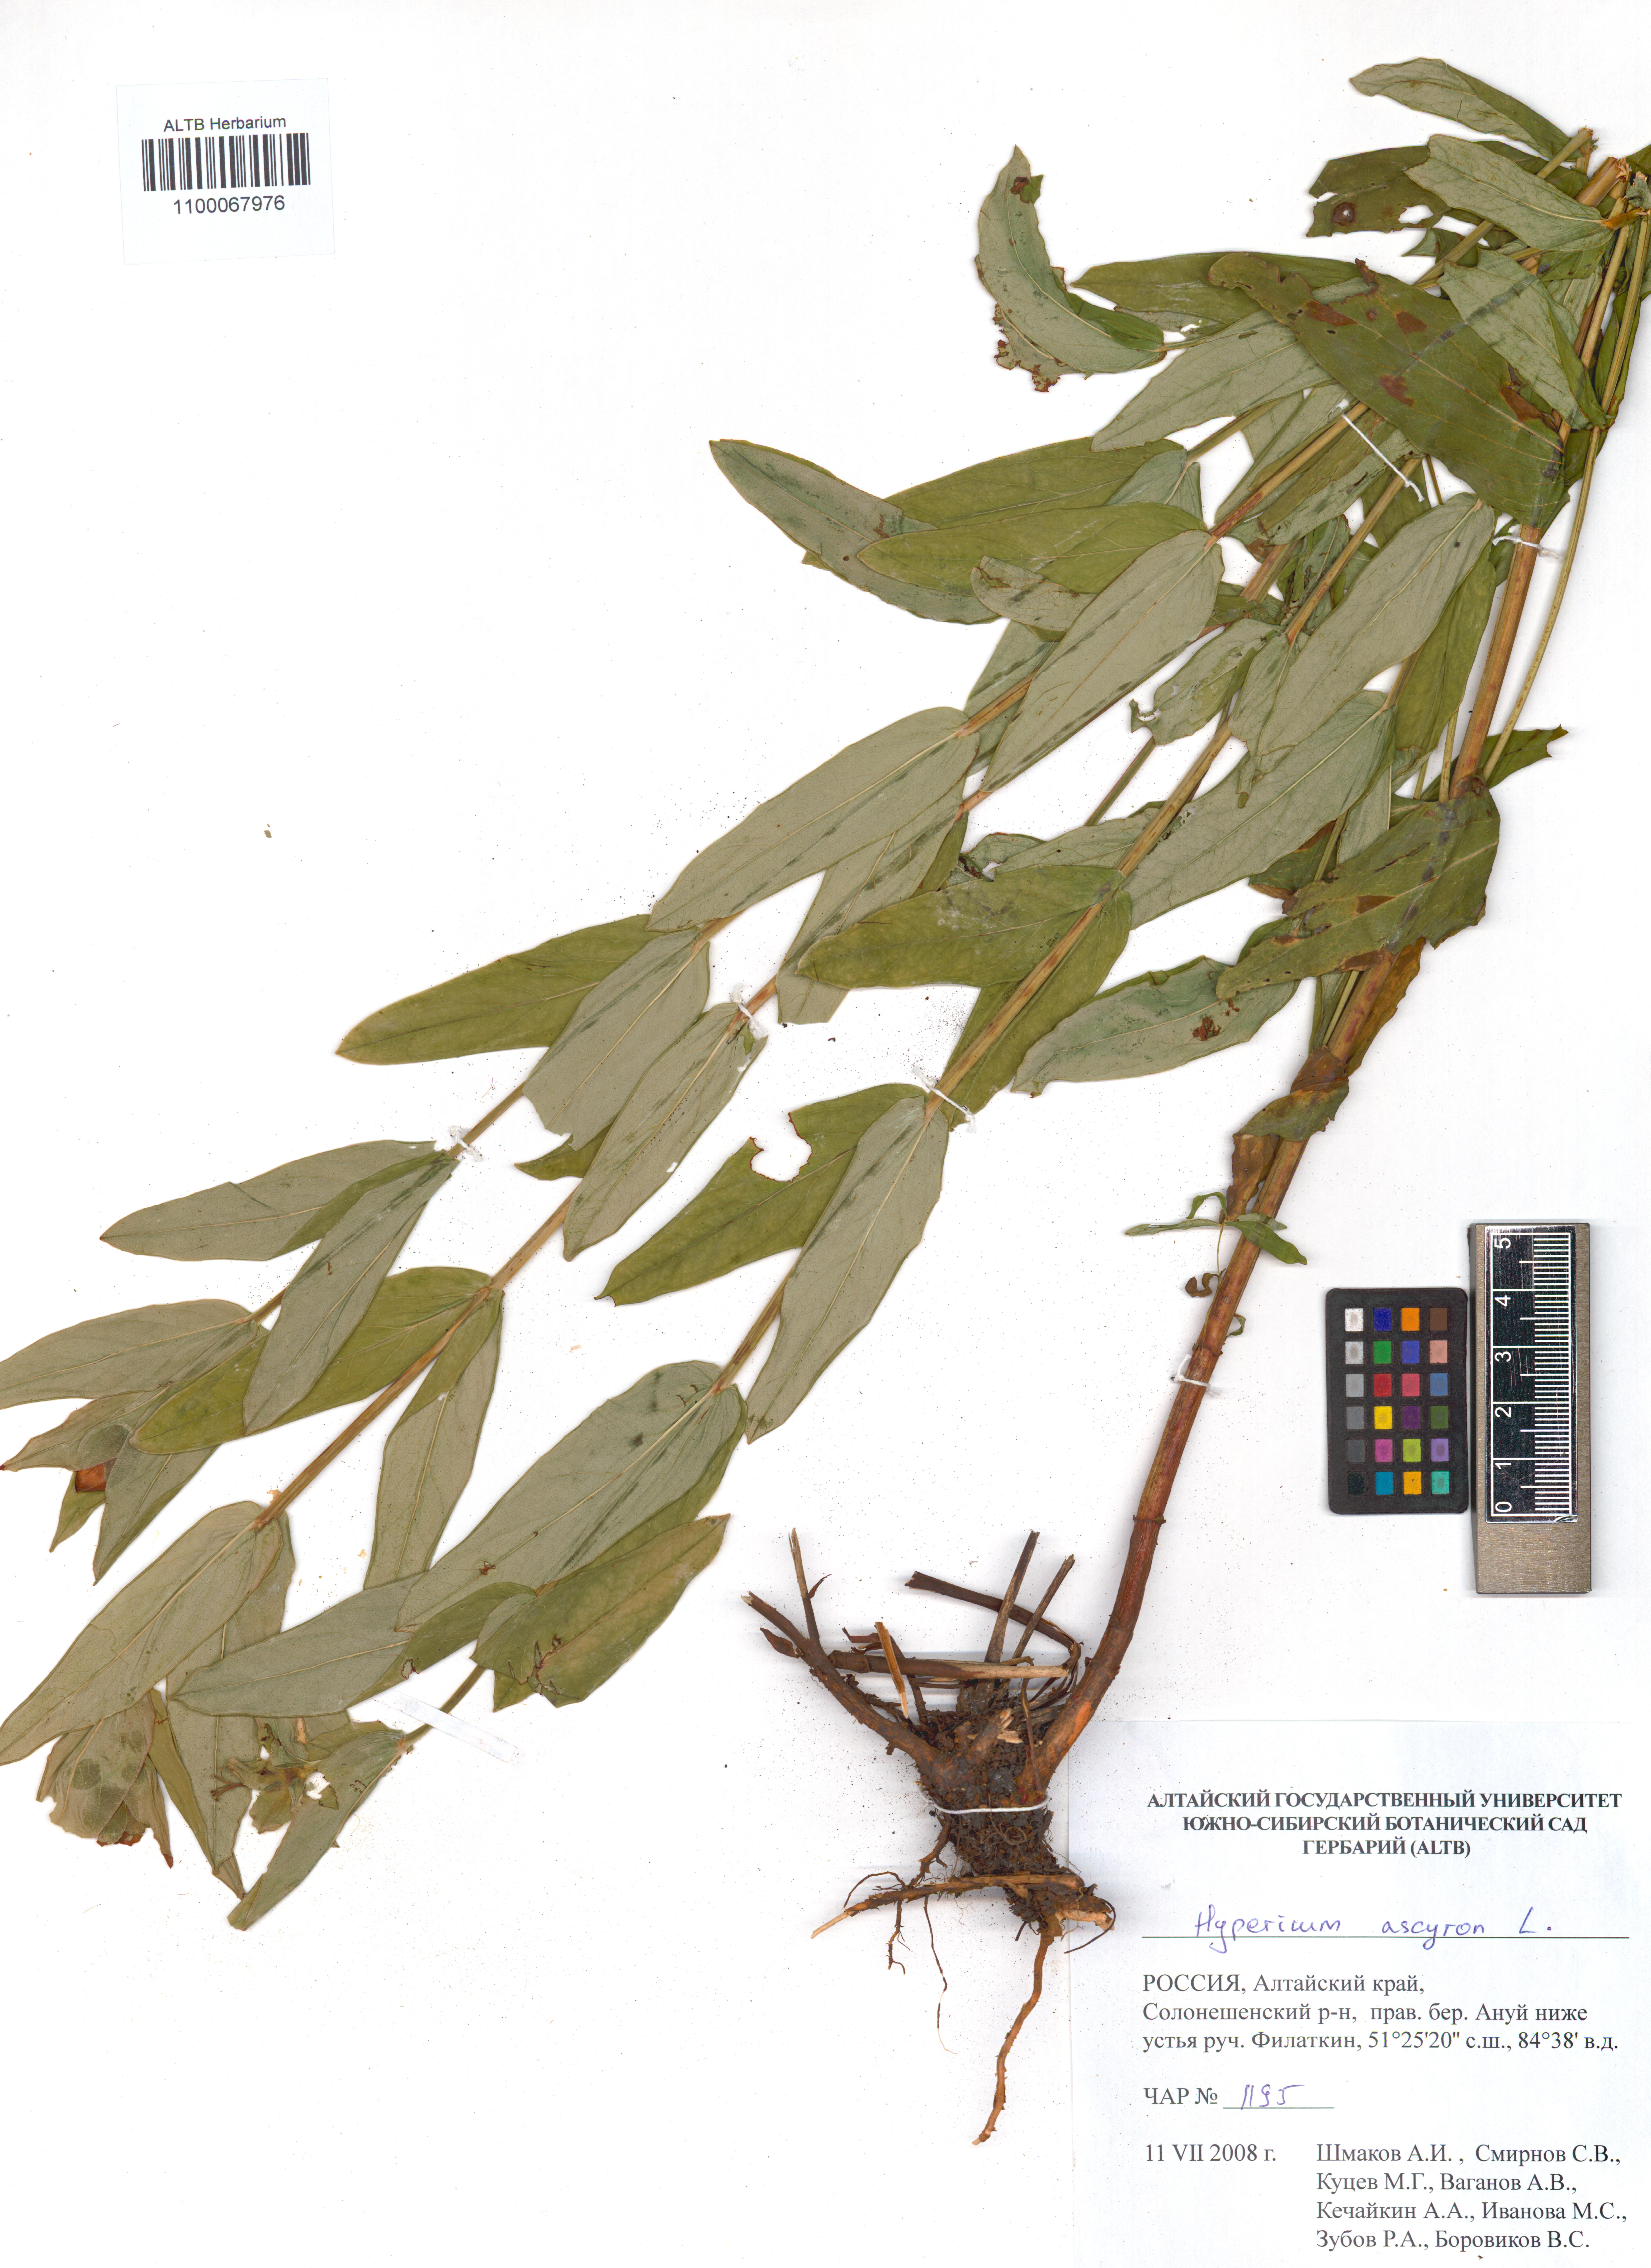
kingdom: Plantae
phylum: Tracheophyta
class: Magnoliopsida
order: Malpighiales
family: Hypericaceae
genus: Hypericum
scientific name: Hypericum ascyron
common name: Giant st. john's-wort
